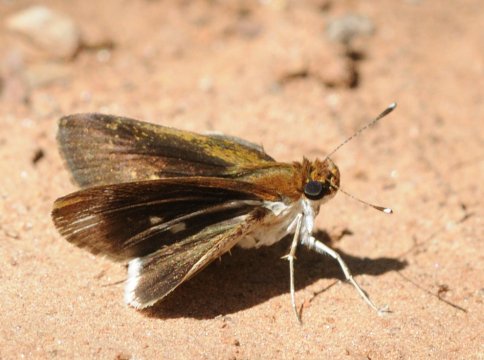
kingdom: Animalia
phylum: Arthropoda
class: Insecta
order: Lepidoptera
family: Hesperiidae
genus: Acleros
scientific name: Acleros mackenii
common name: Macken's Dart
